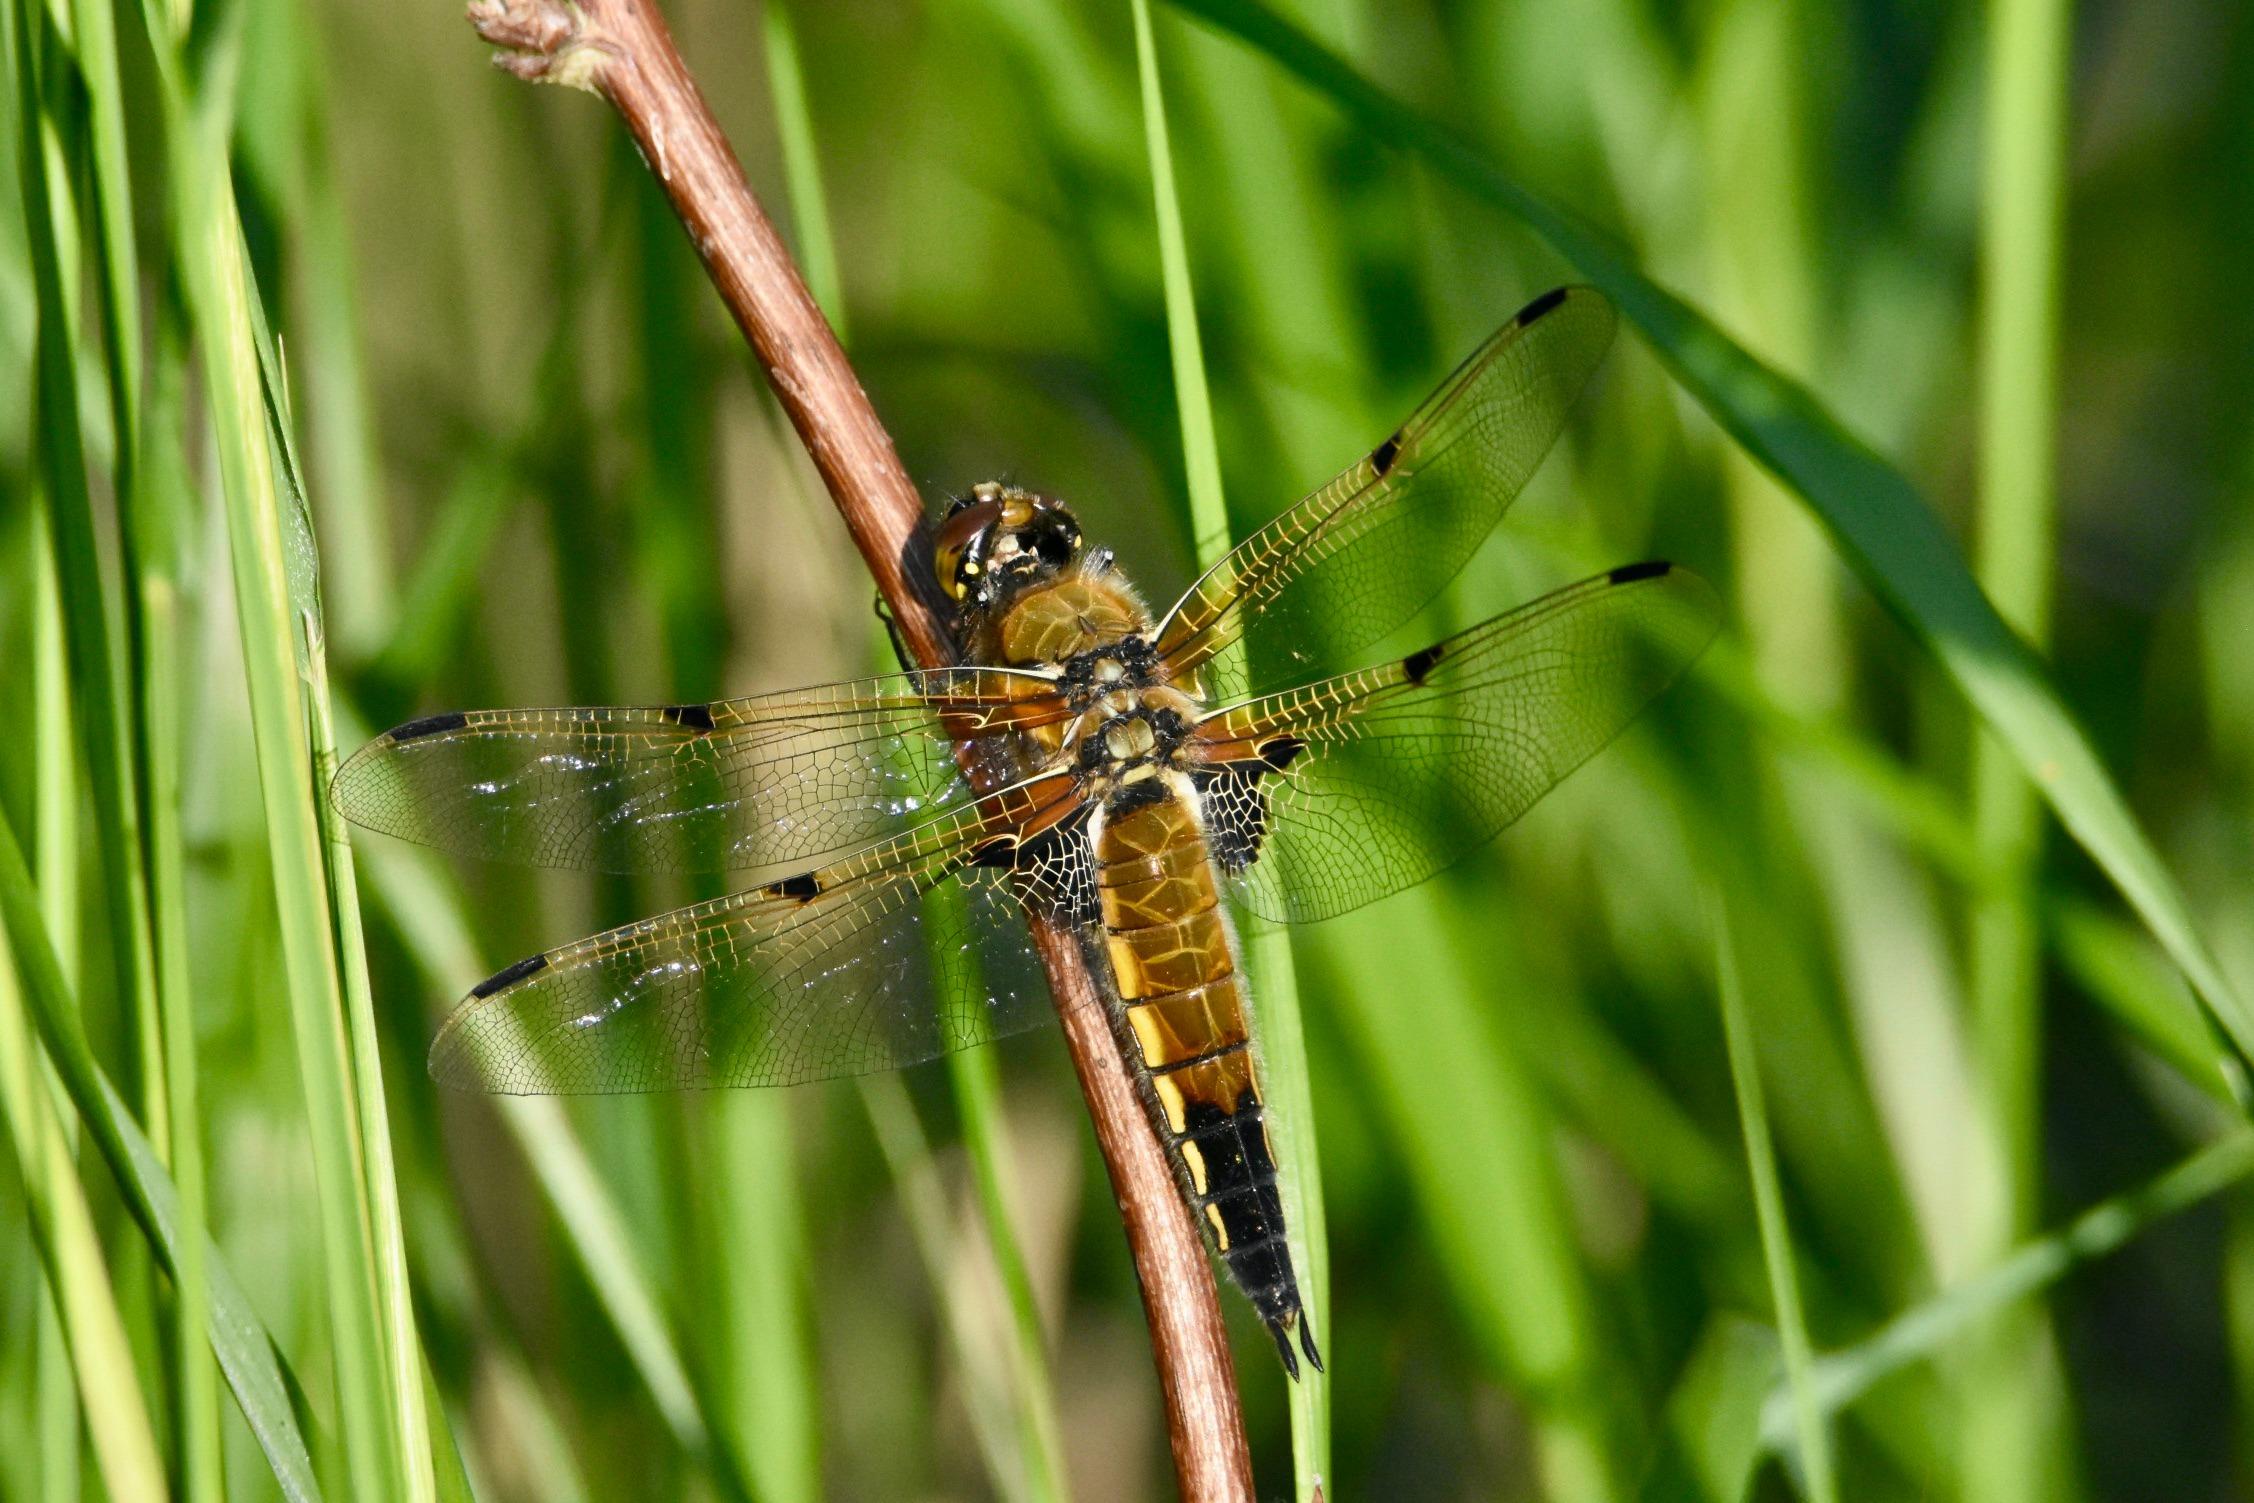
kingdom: Animalia
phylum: Arthropoda
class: Insecta
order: Odonata
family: Libellulidae
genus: Libellula
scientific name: Libellula quadrimaculata
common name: Fireplettet libel
